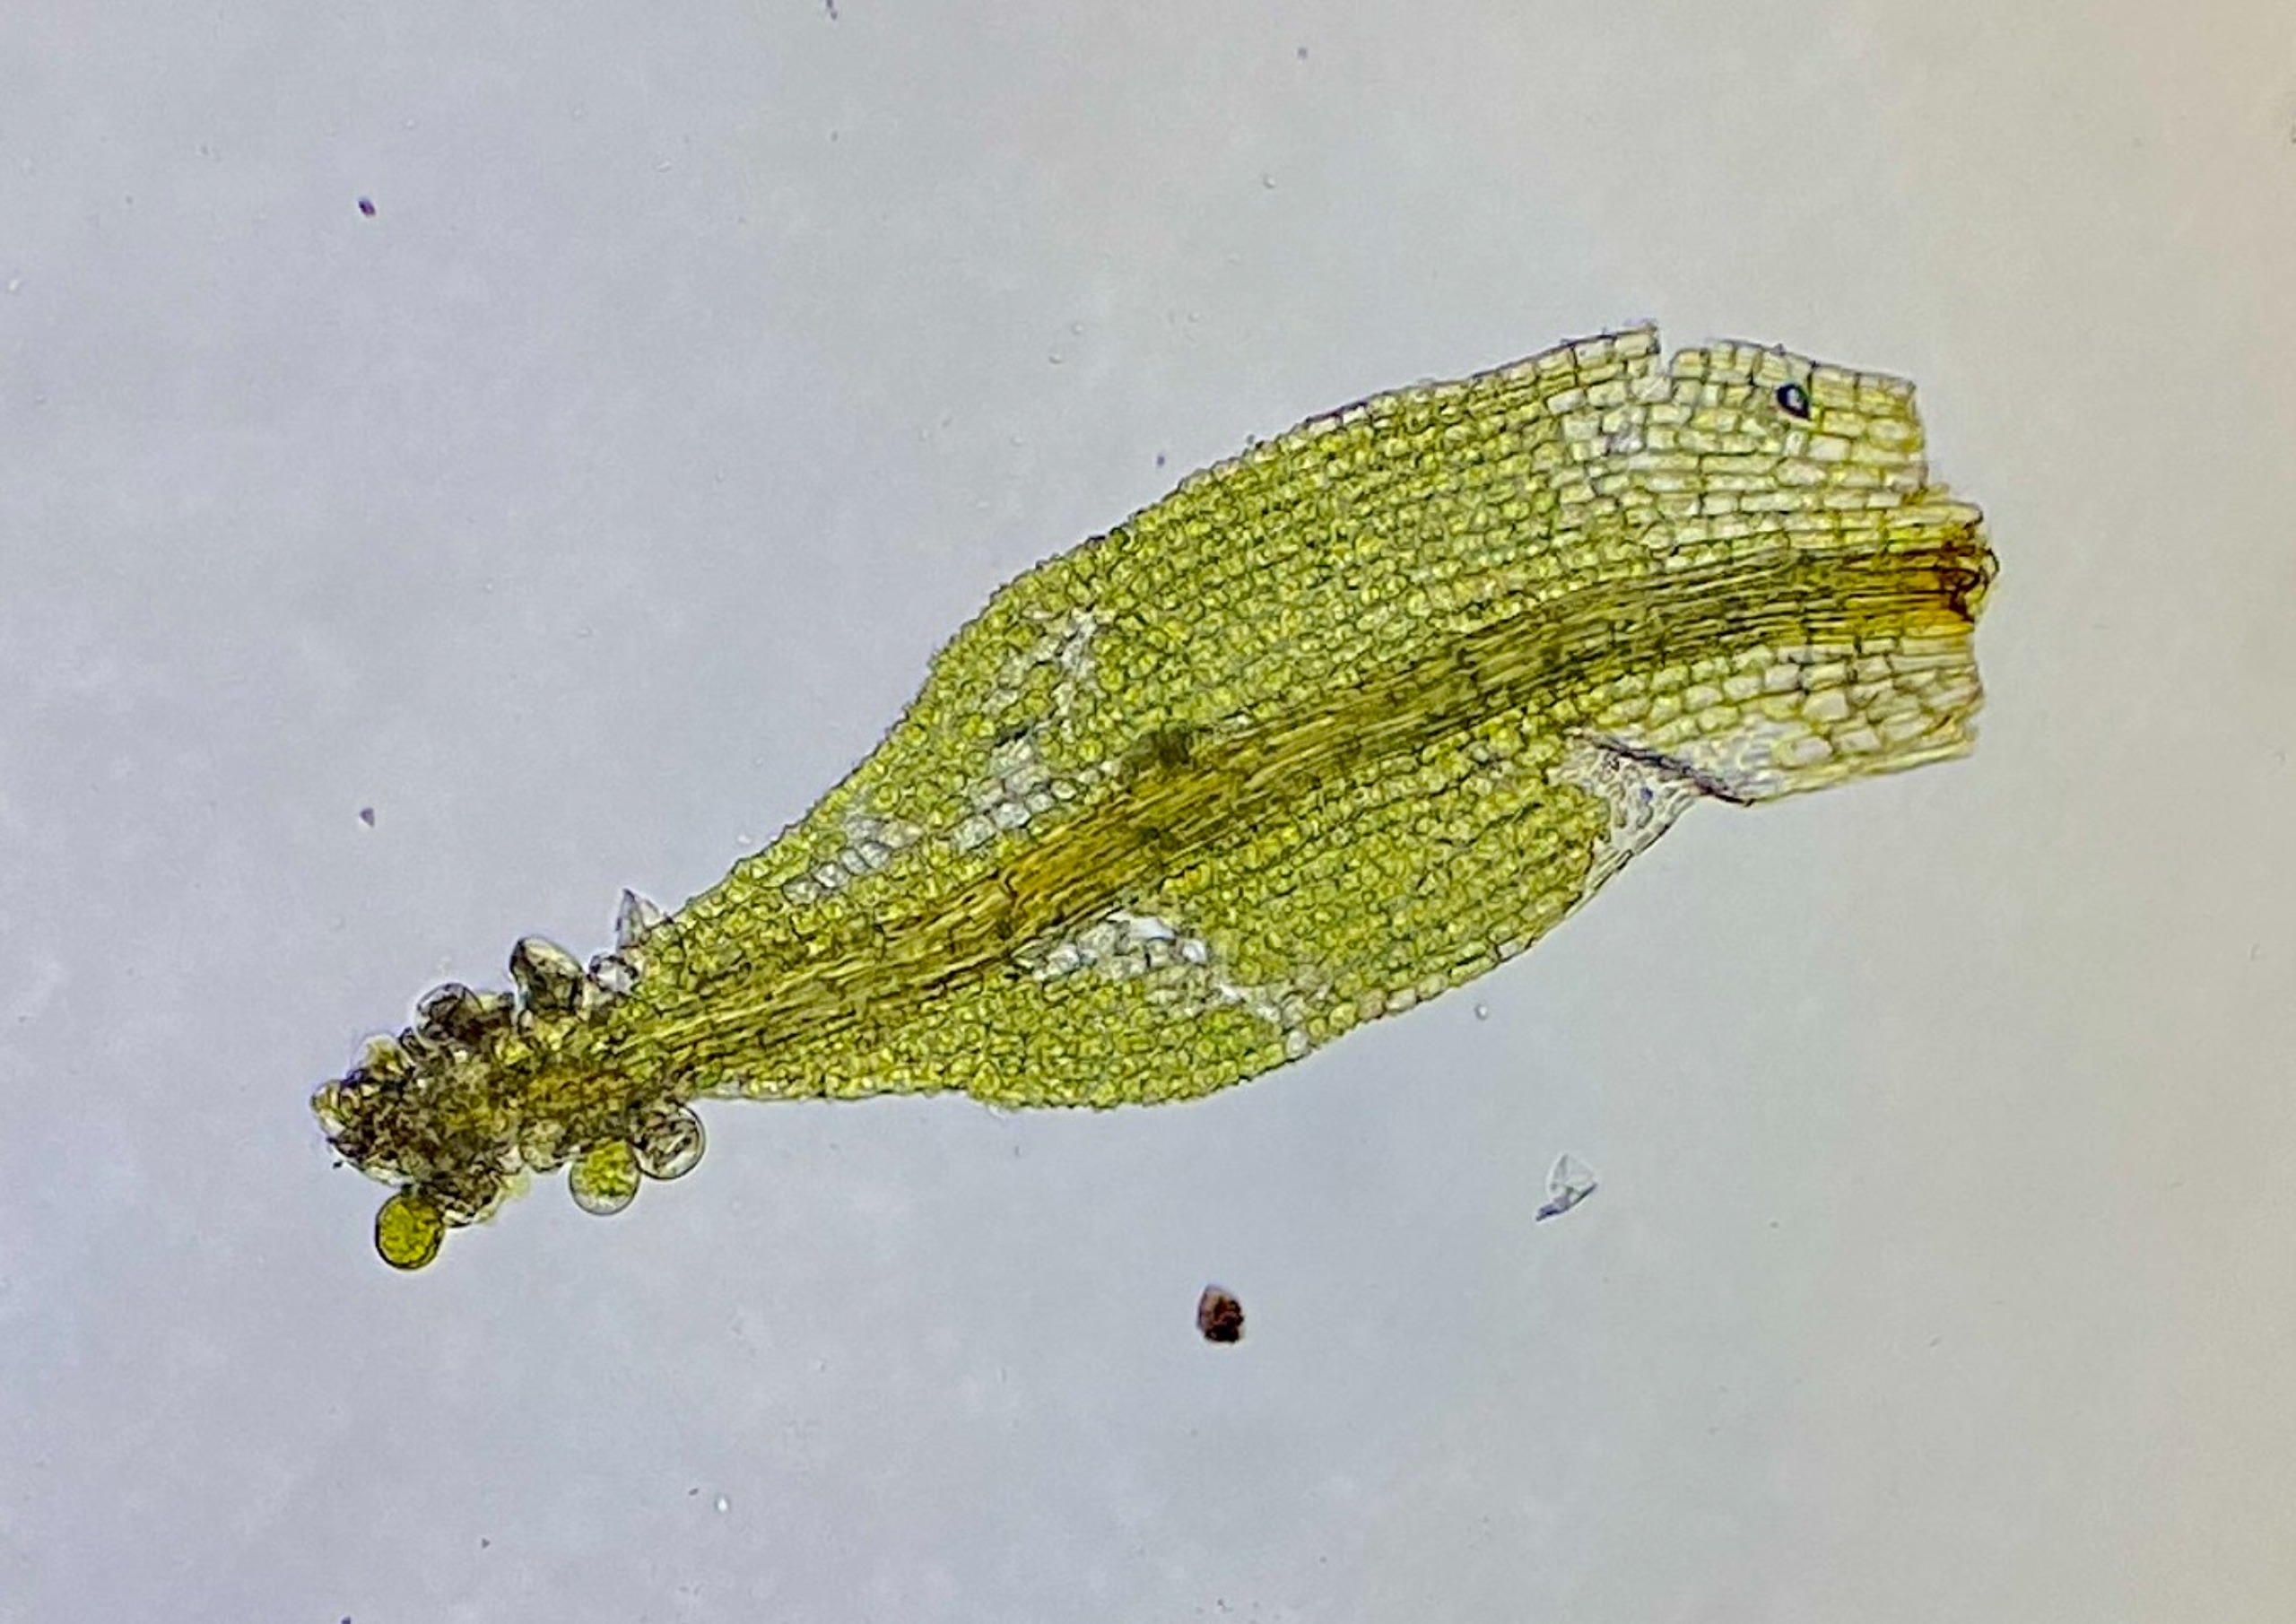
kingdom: Plantae
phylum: Bryophyta
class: Bryopsida
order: Pottiales
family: Pottiaceae
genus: Leptodontium
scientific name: Leptodontium gemmascens
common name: Brod-smaltand
